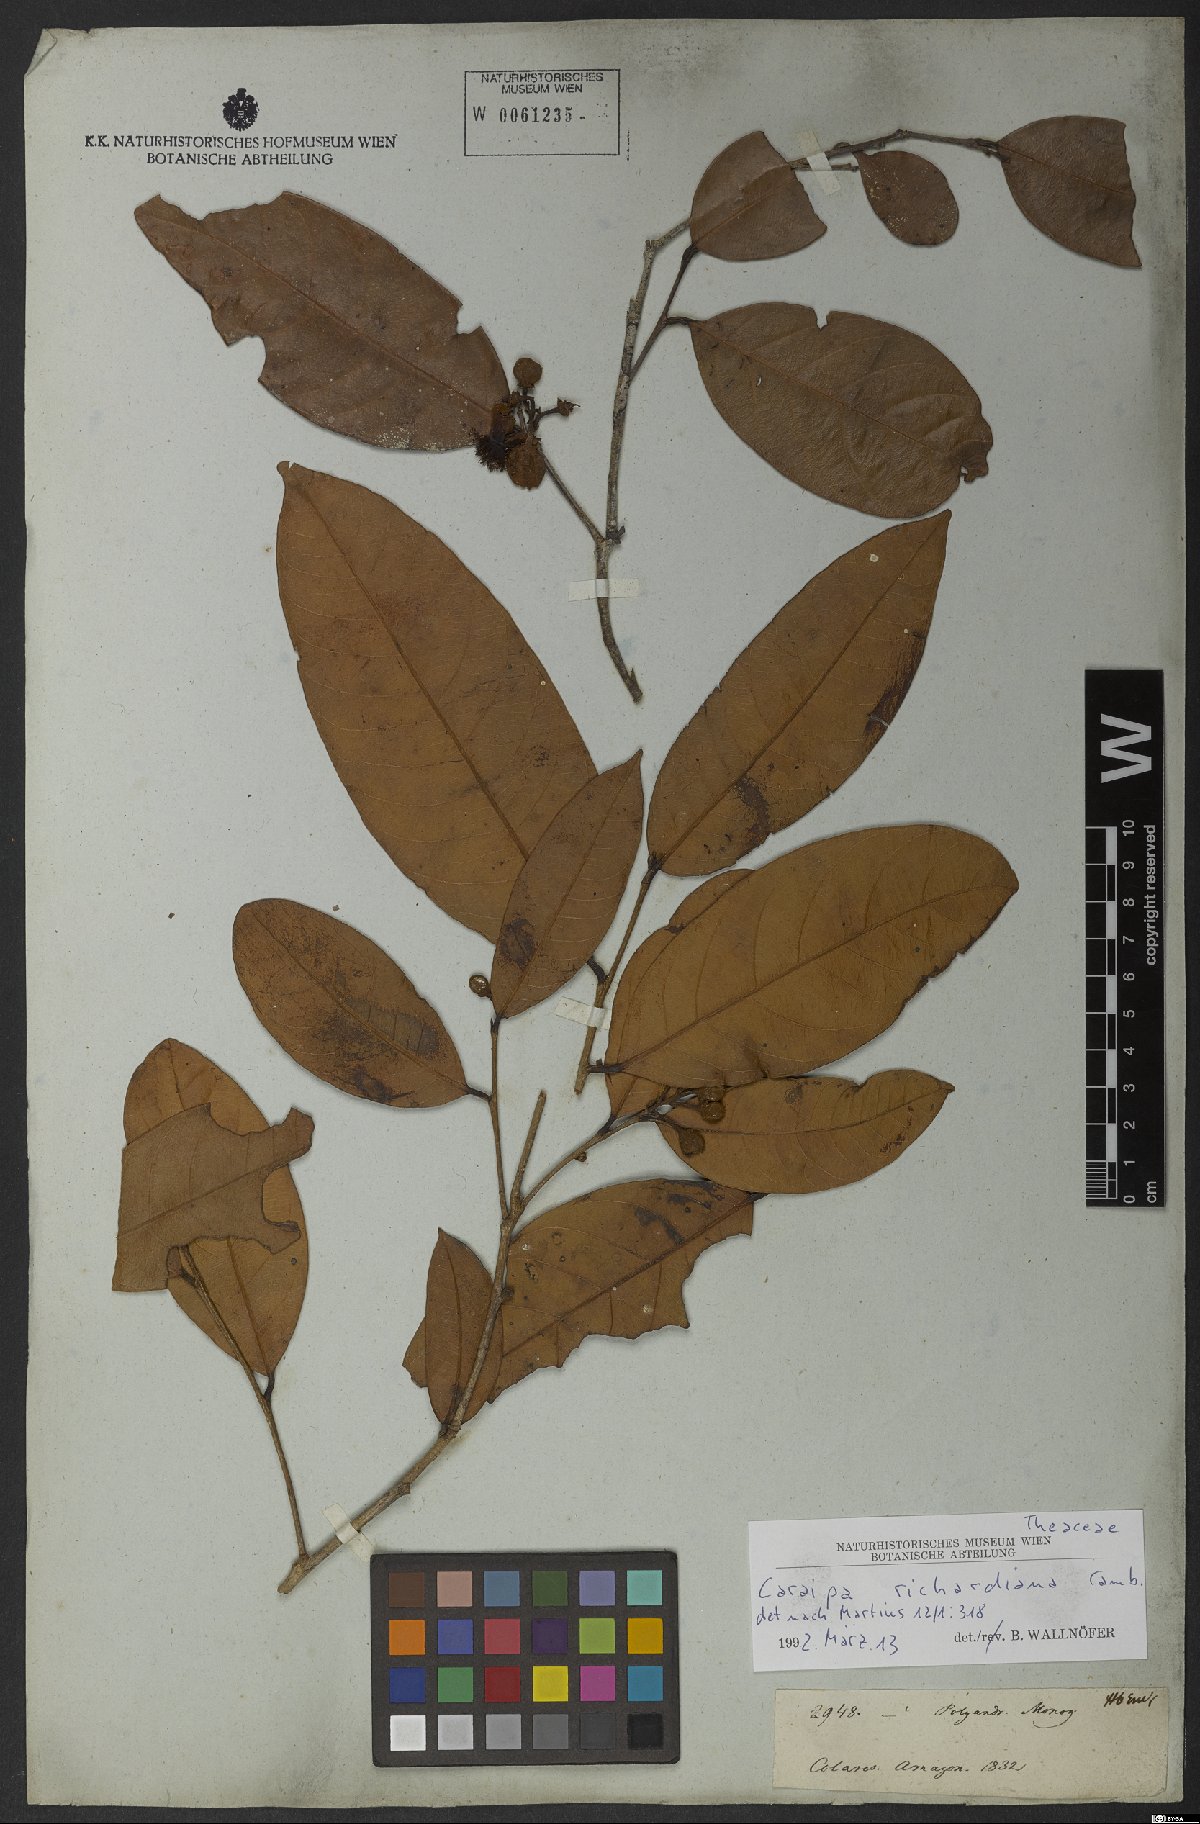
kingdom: Plantae
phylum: Tracheophyta
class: Magnoliopsida
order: Malpighiales
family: Calophyllaceae
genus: Caraipa
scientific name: Caraipa richardiana
